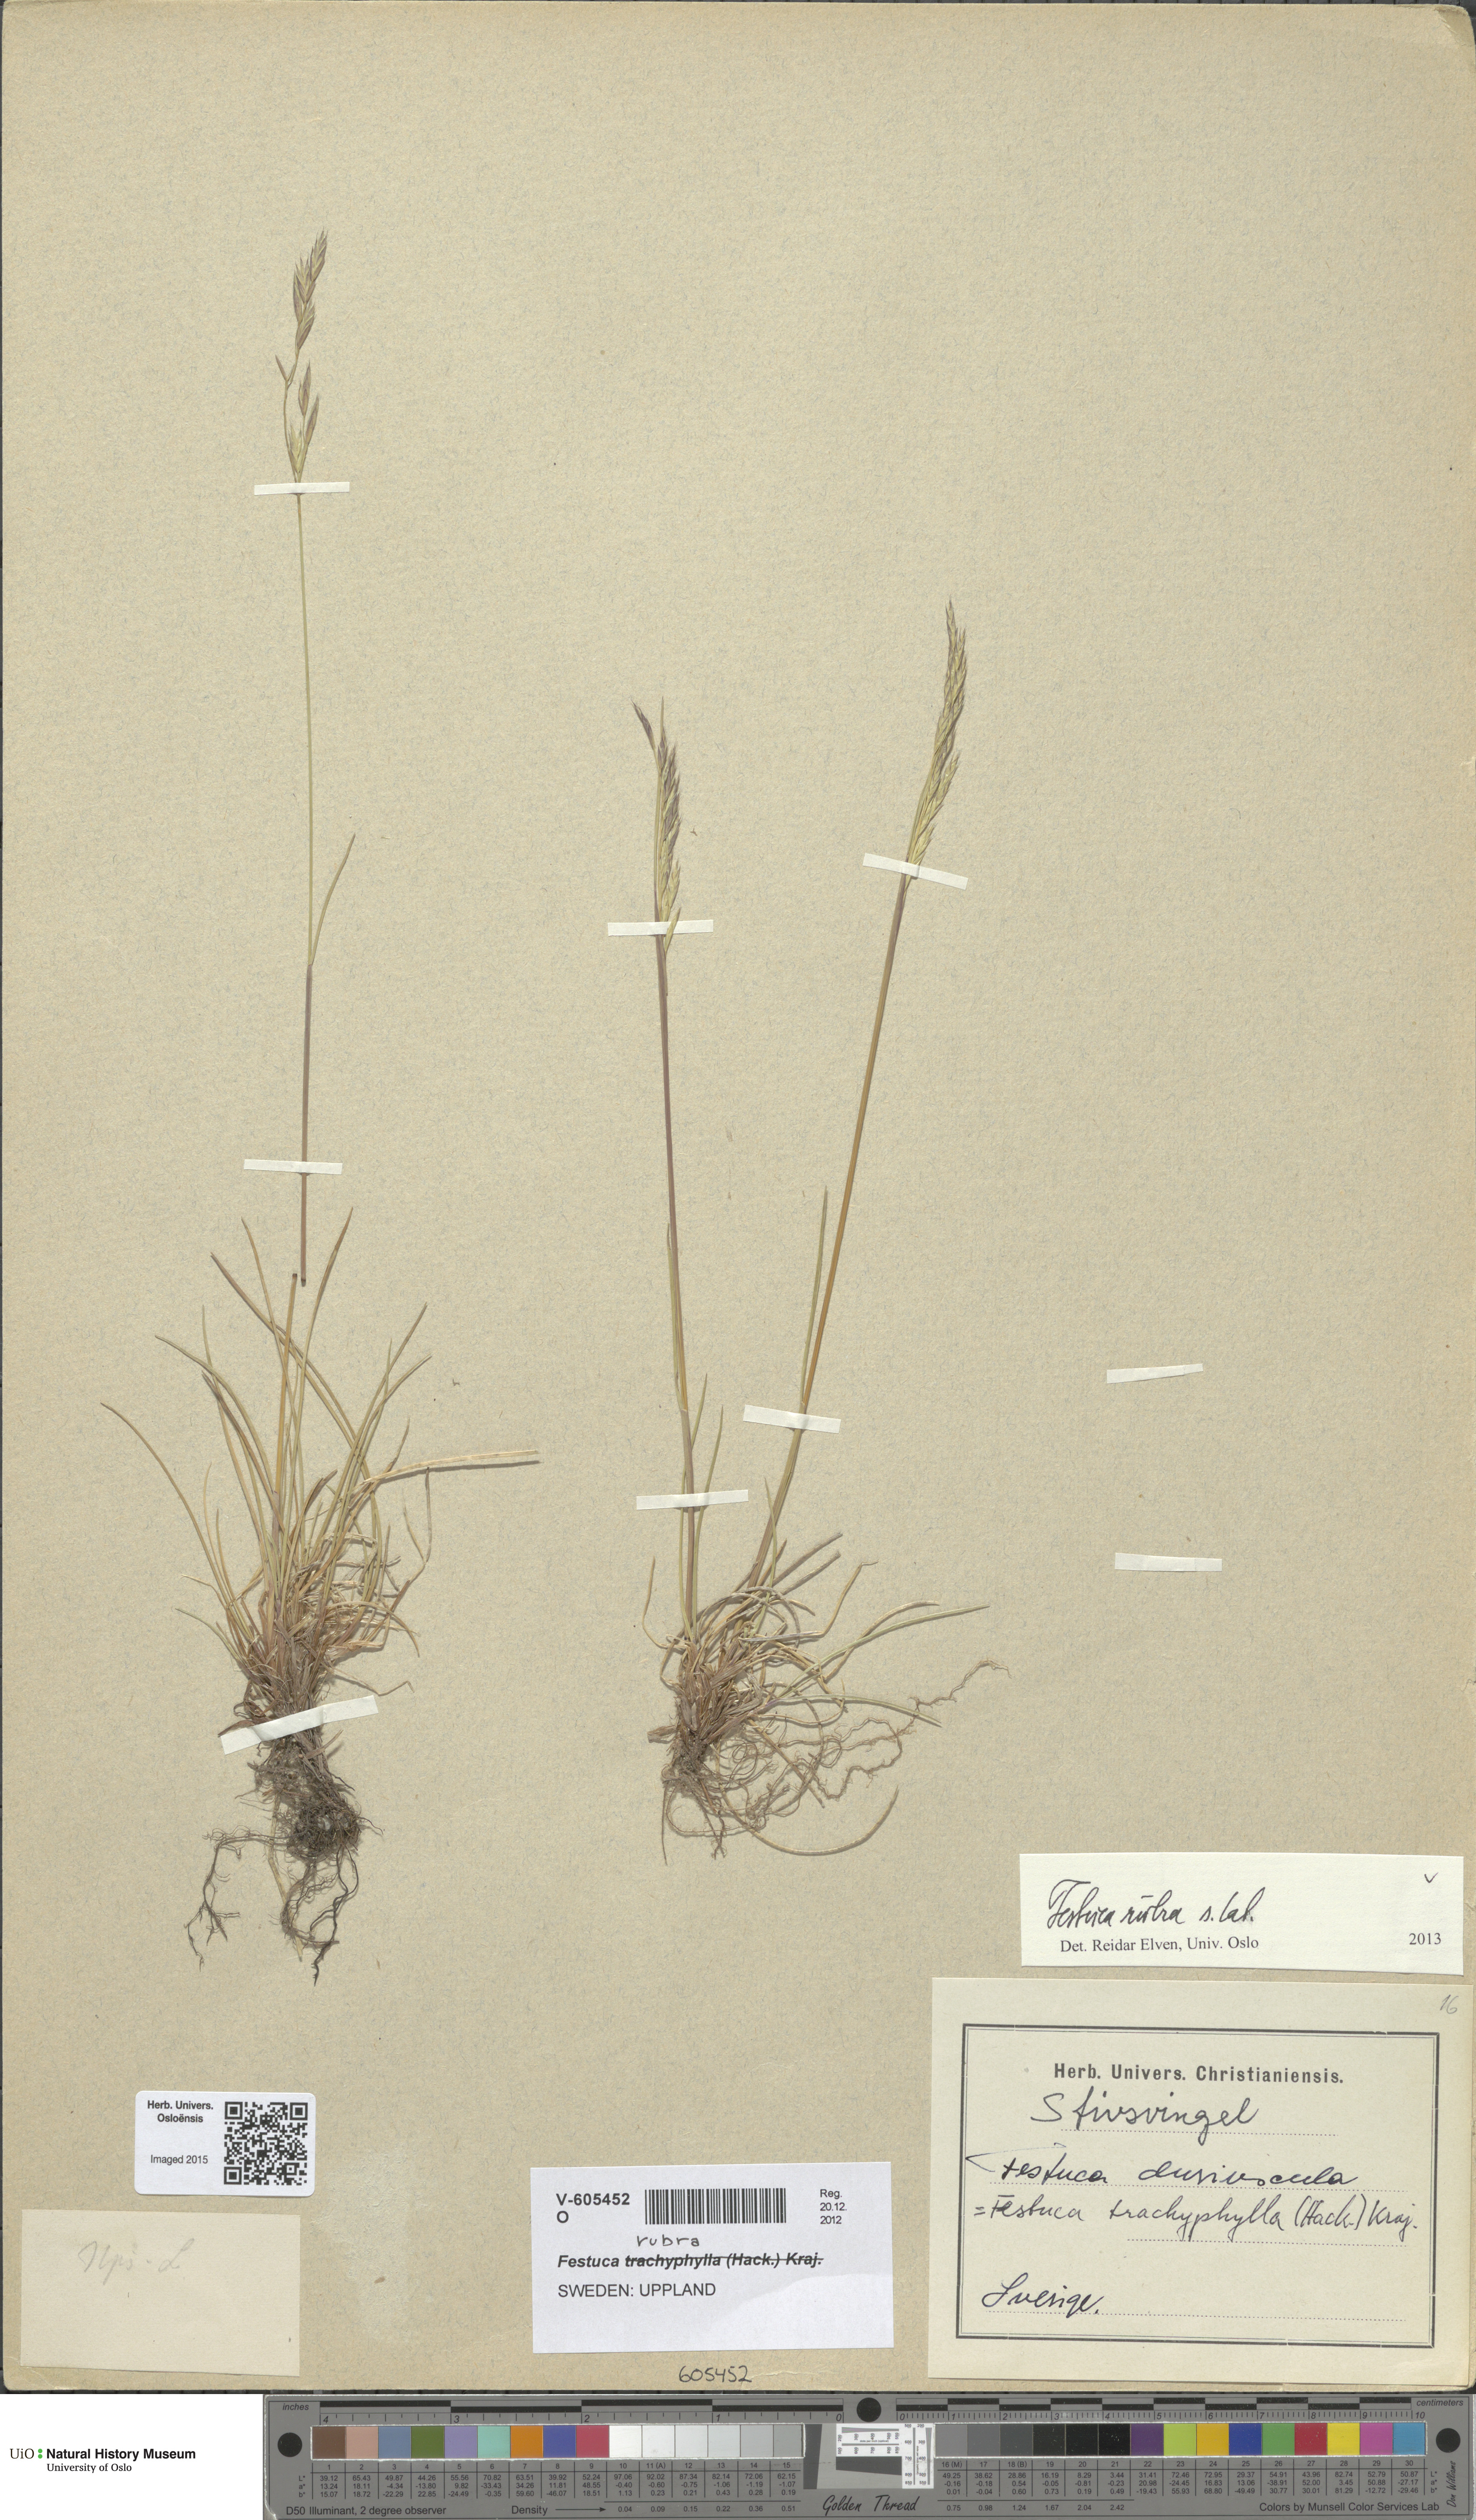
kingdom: Plantae
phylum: Tracheophyta
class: Liliopsida
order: Poales
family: Poaceae
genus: Festuca
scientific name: Festuca rubra
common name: Red fescue
